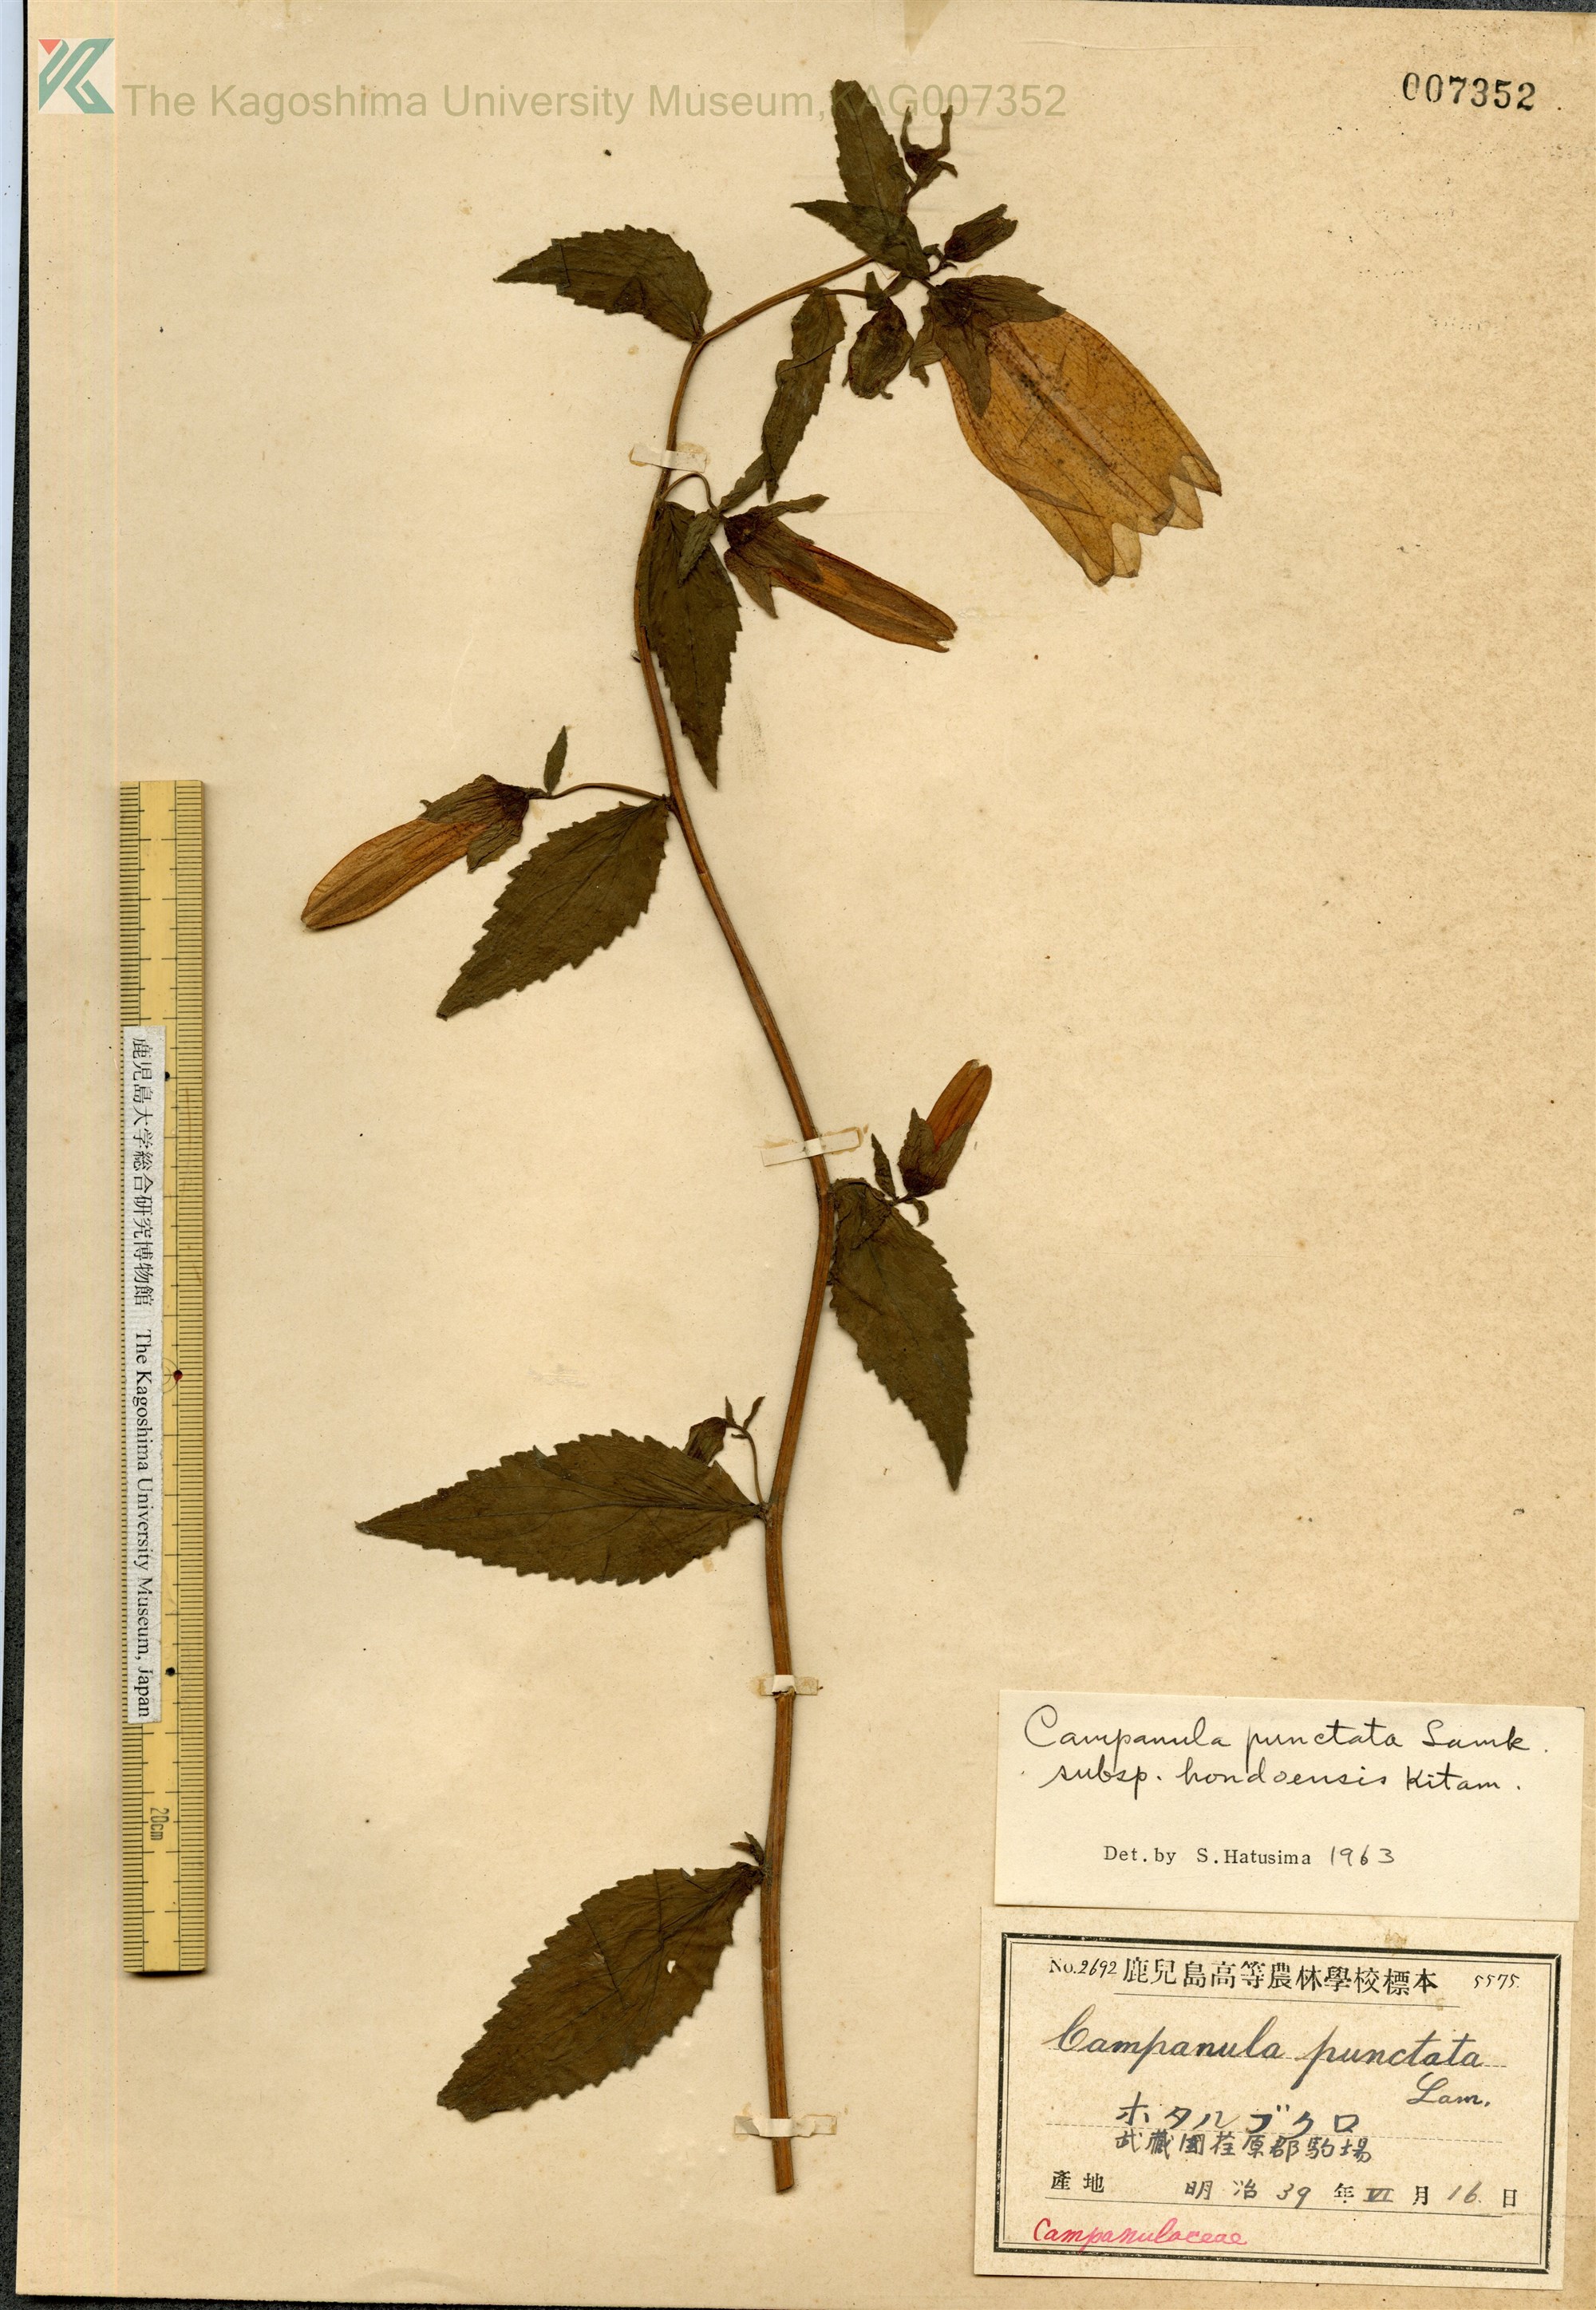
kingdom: Plantae
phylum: Tracheophyta
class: Magnoliopsida
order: Asterales
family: Campanulaceae
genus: Campanula
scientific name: Campanula punctata
